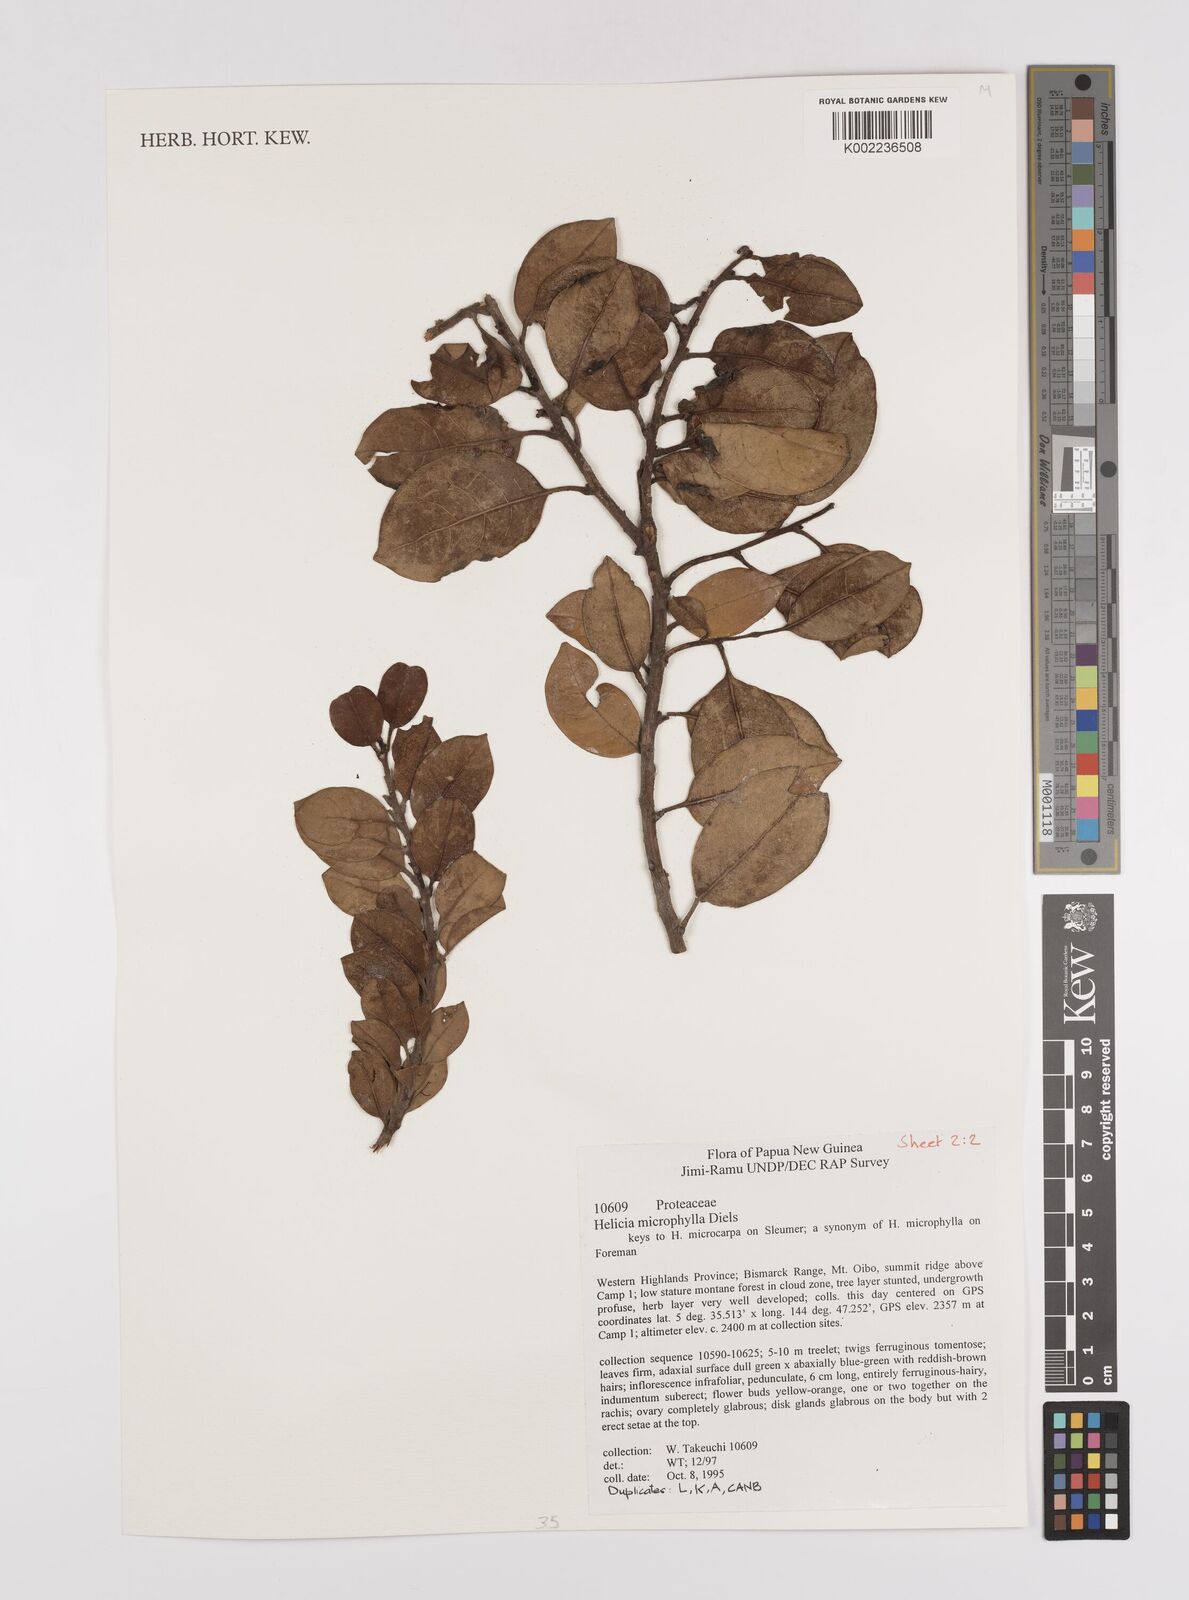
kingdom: Plantae
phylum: Tracheophyta
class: Magnoliopsida
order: Proteales
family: Proteaceae
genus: Helicia
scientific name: Helicia microphylla
